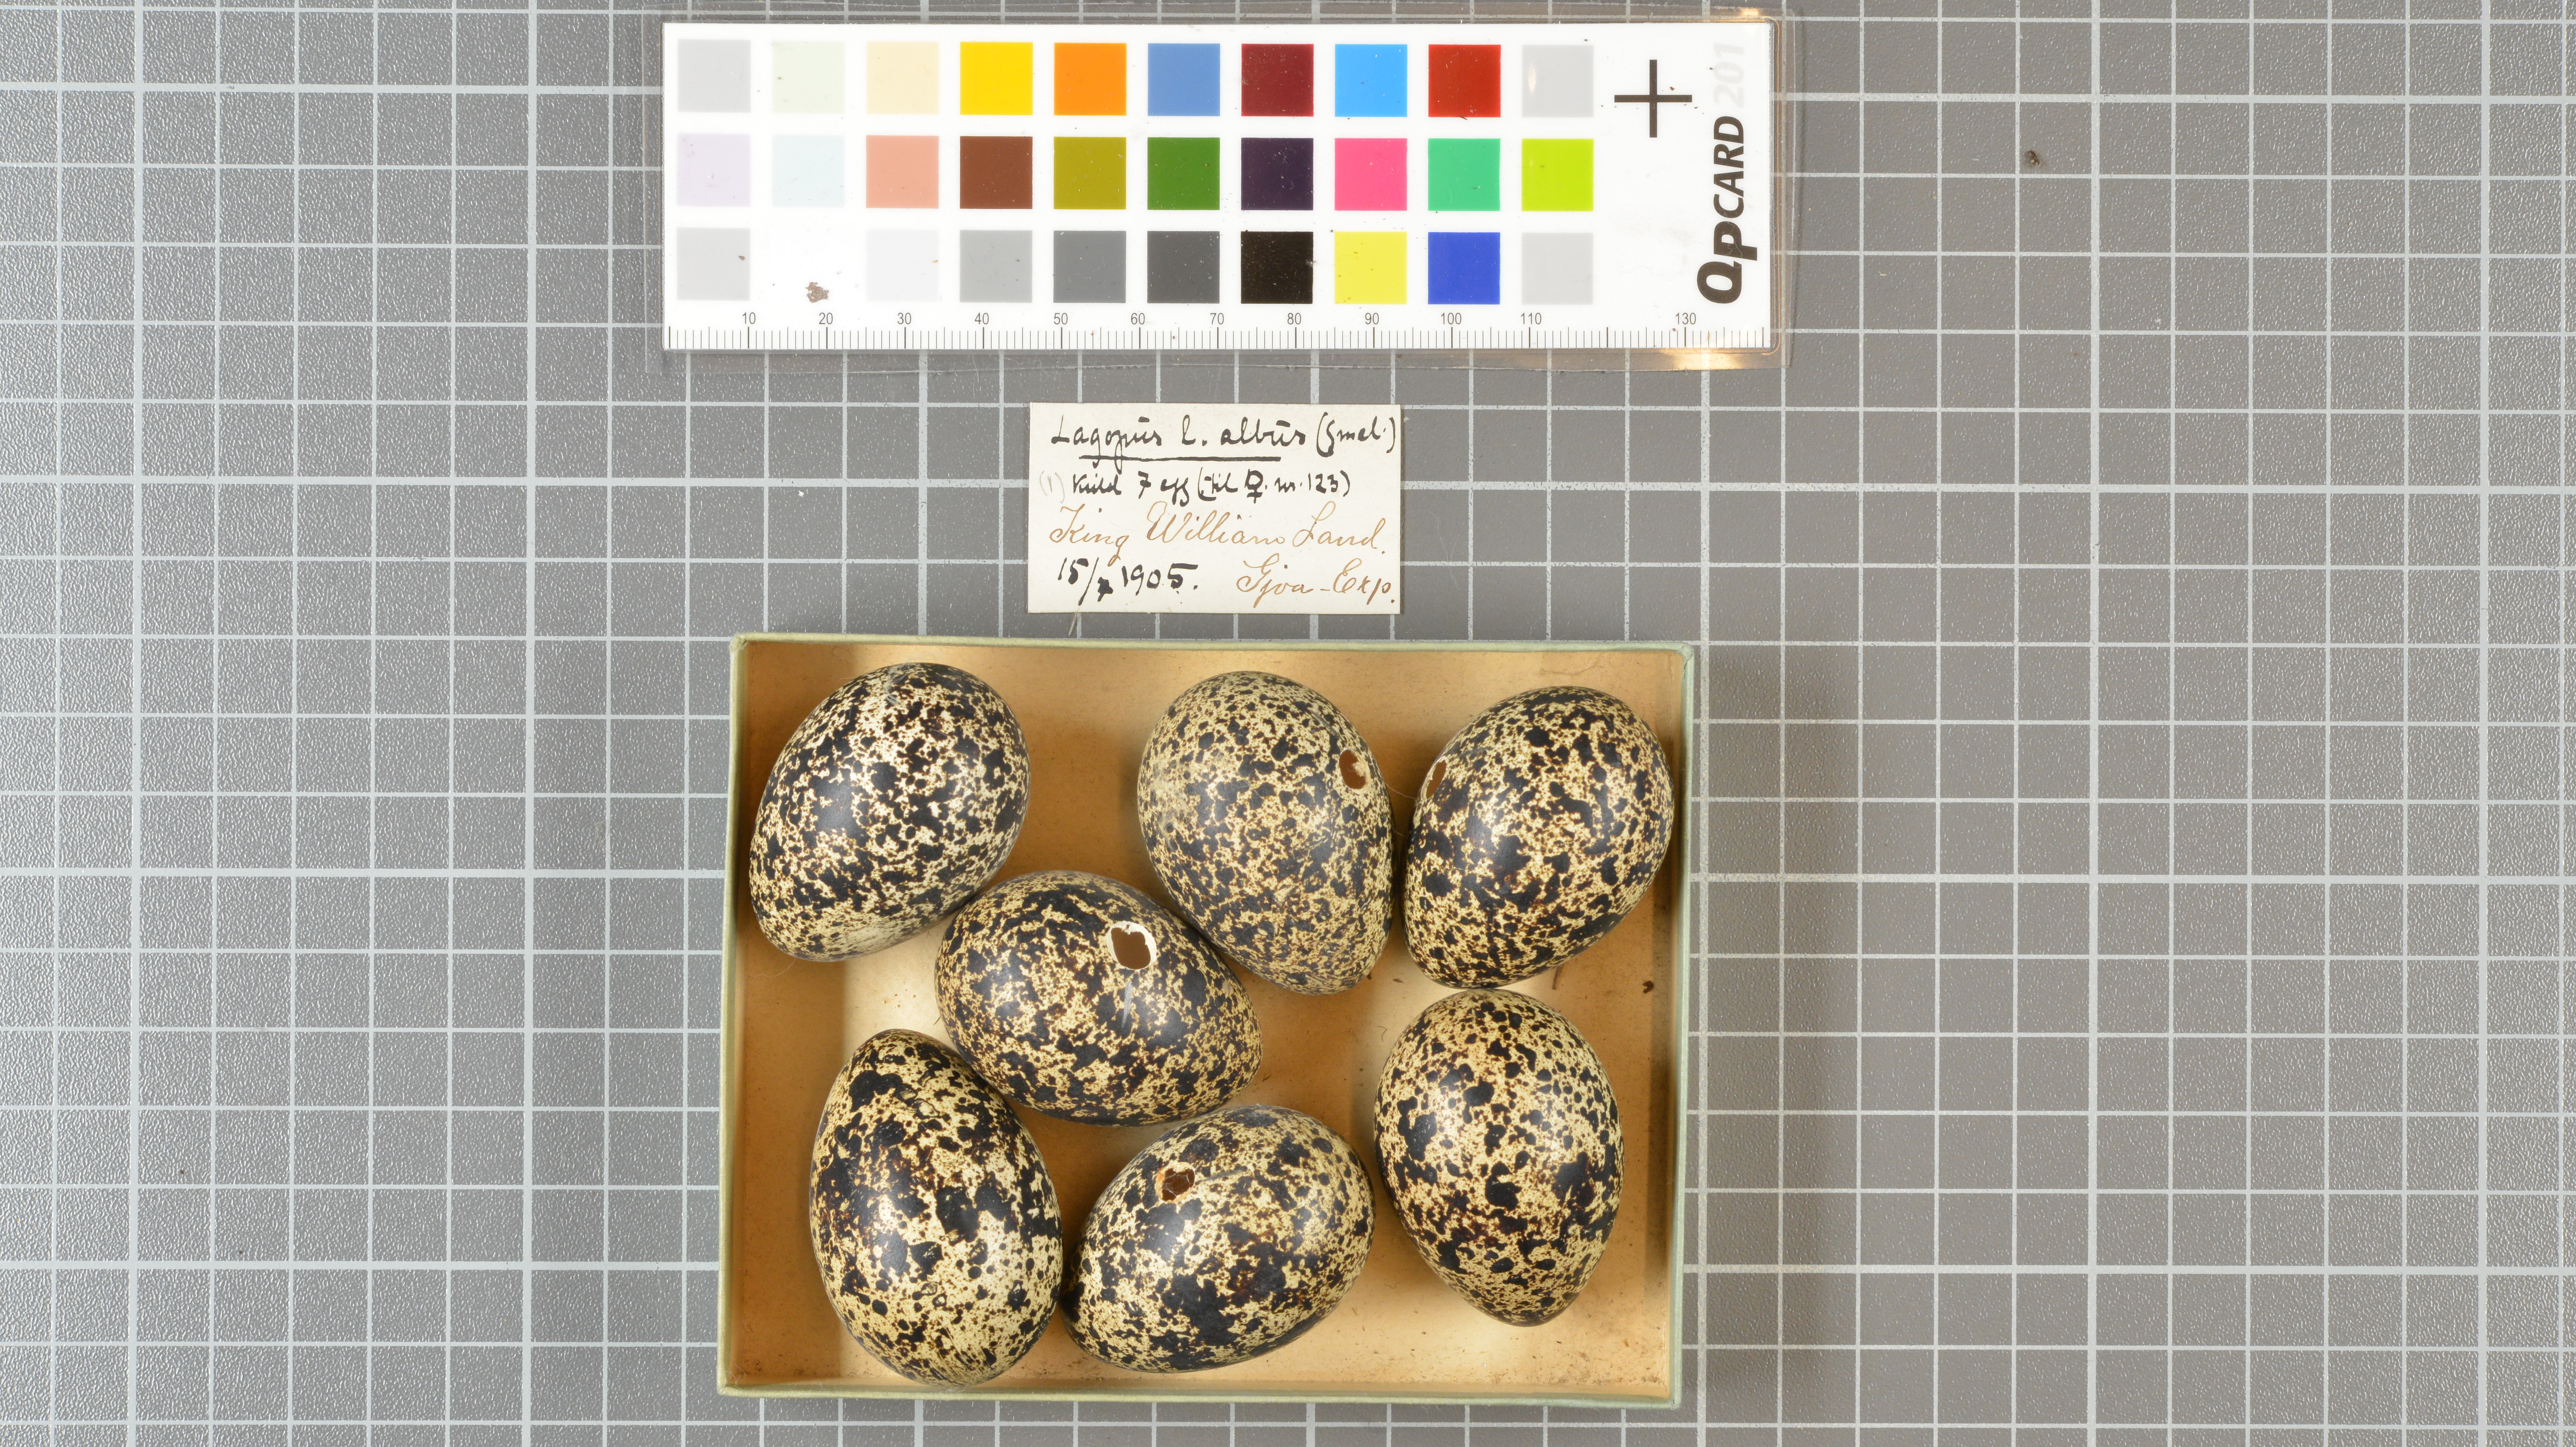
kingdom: Animalia
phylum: Chordata
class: Aves
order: Galliformes
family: Phasianidae
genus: Lagopus
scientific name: Lagopus lagopus
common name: Willow ptarmigan
